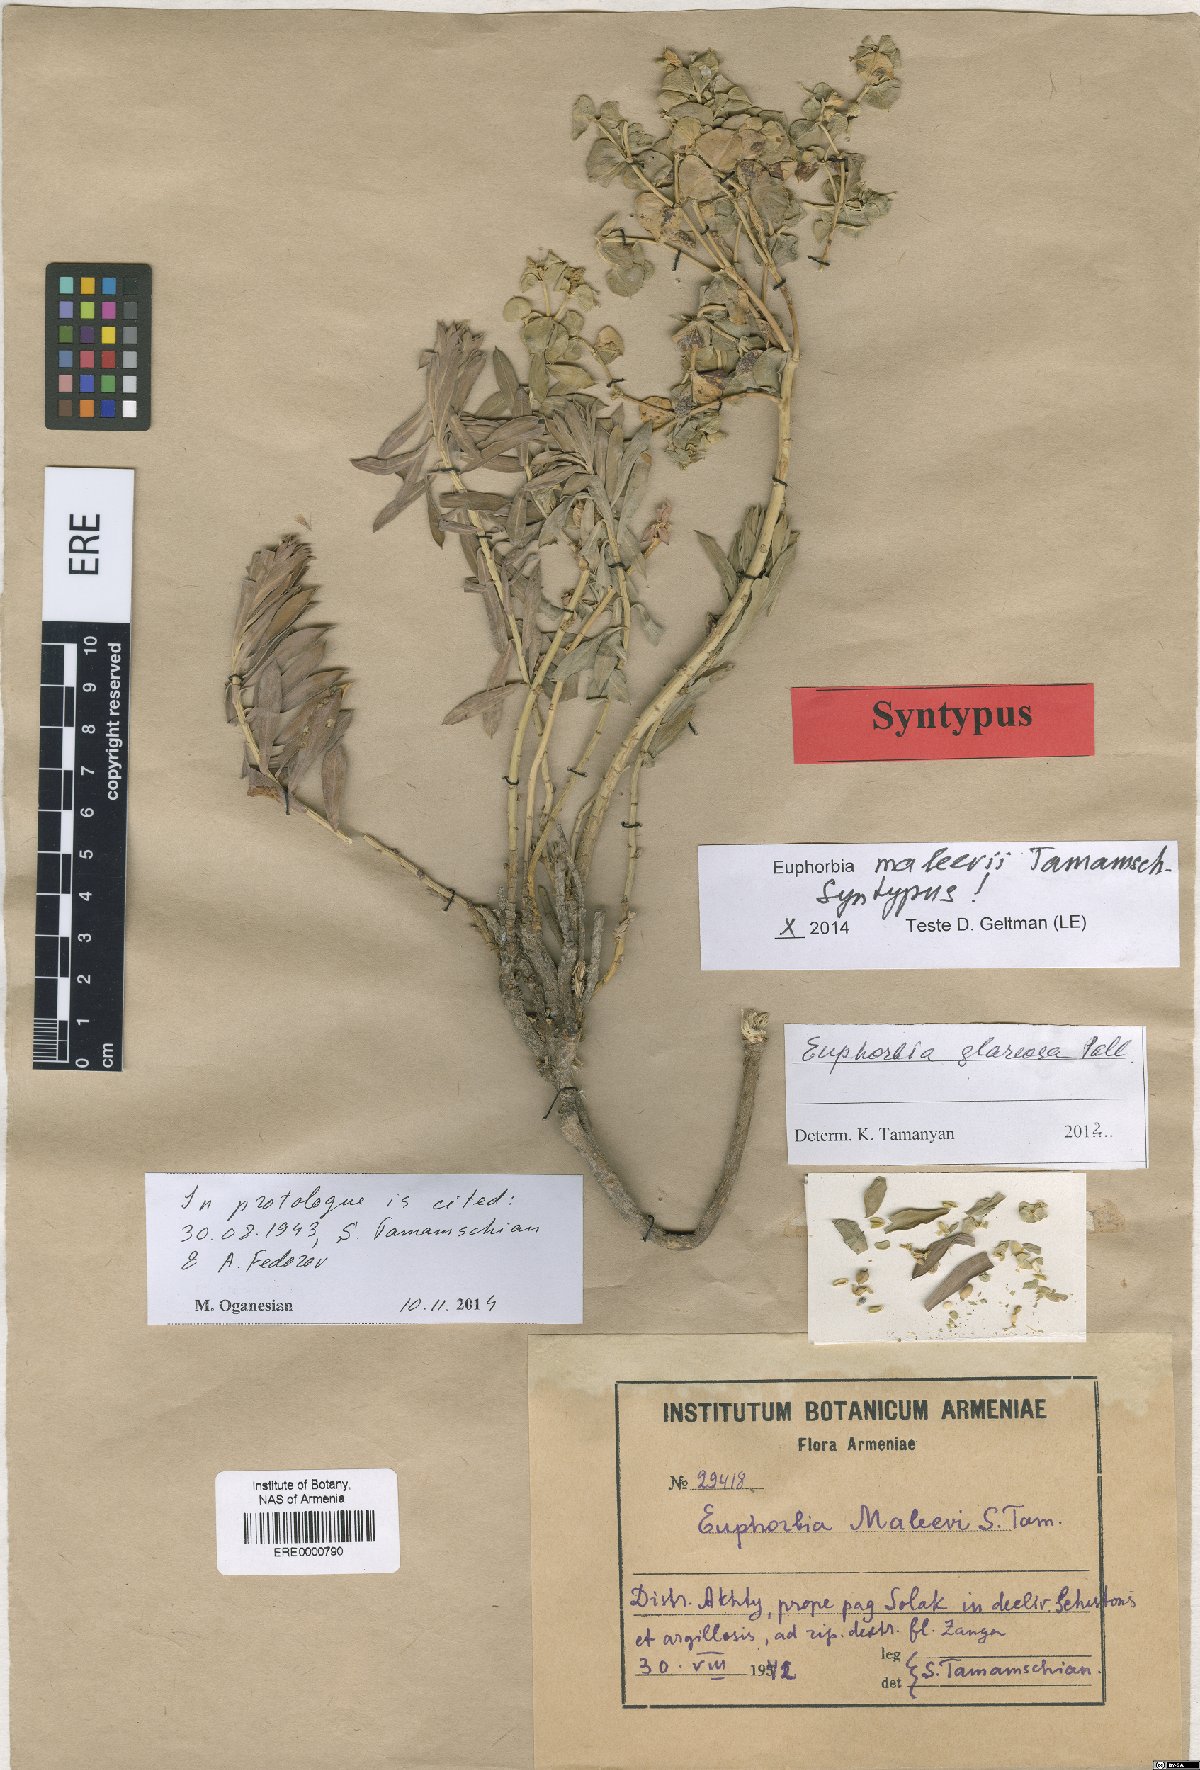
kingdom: Plantae
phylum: Tracheophyta
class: Magnoliopsida
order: Malpighiales
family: Euphorbiaceae
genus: Euphorbia
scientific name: Euphorbia glareosa
